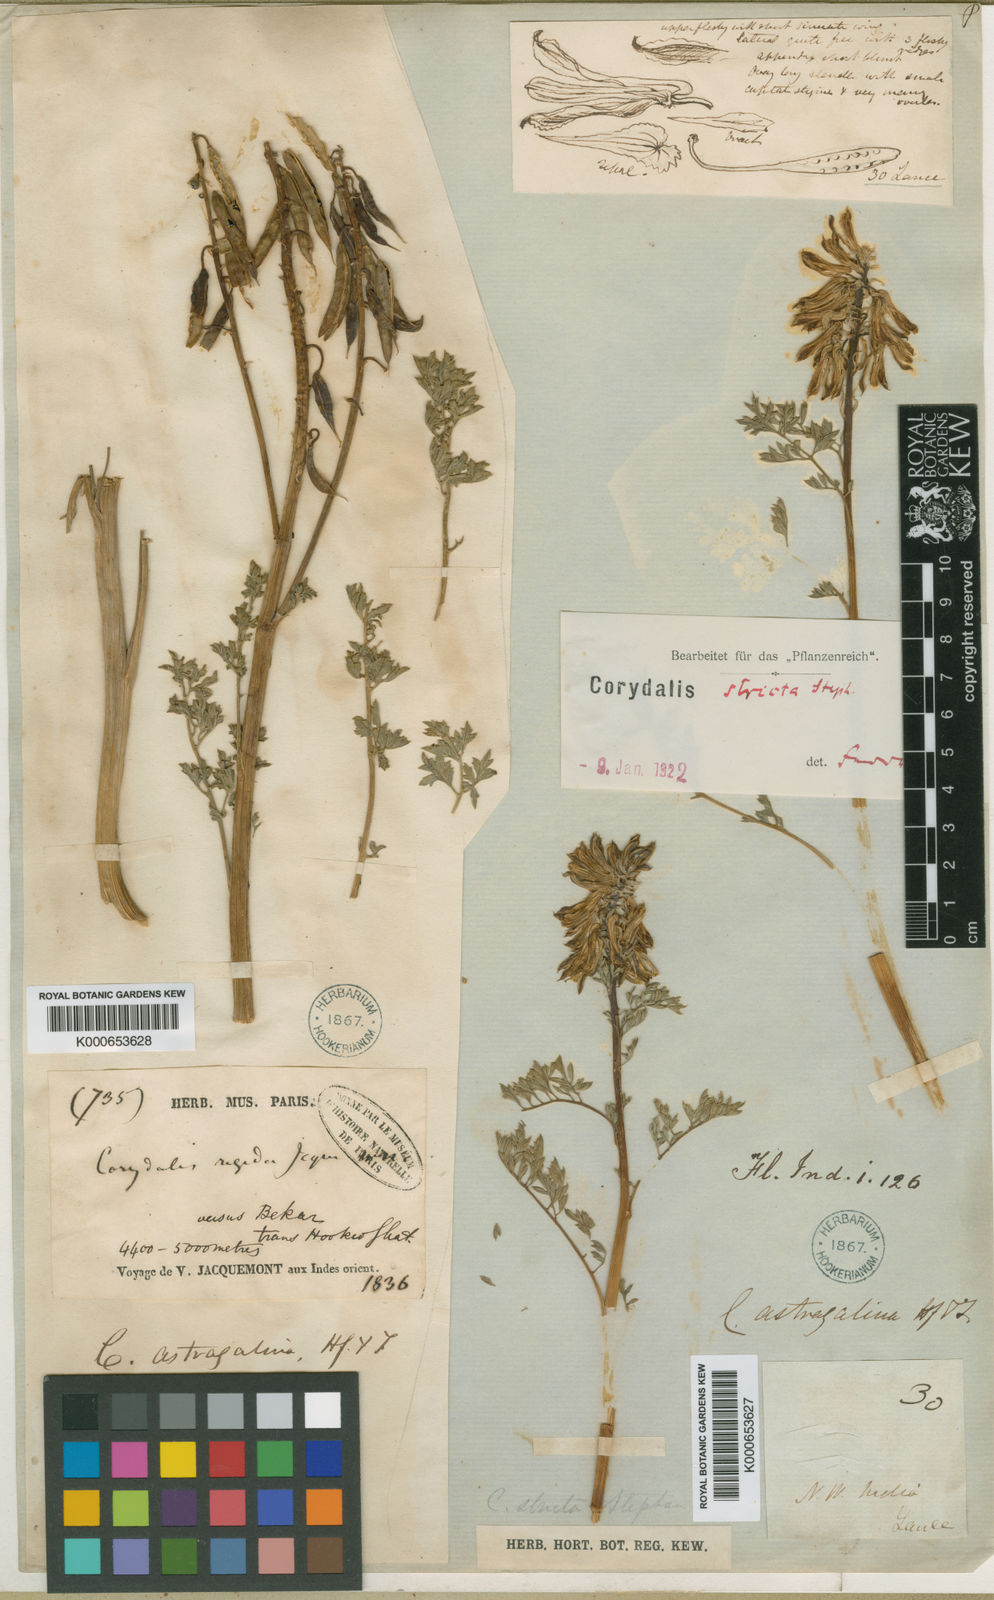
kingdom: Plantae
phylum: Tracheophyta
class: Magnoliopsida
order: Ranunculales
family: Papaveraceae
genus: Corydalis
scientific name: Corydalis
